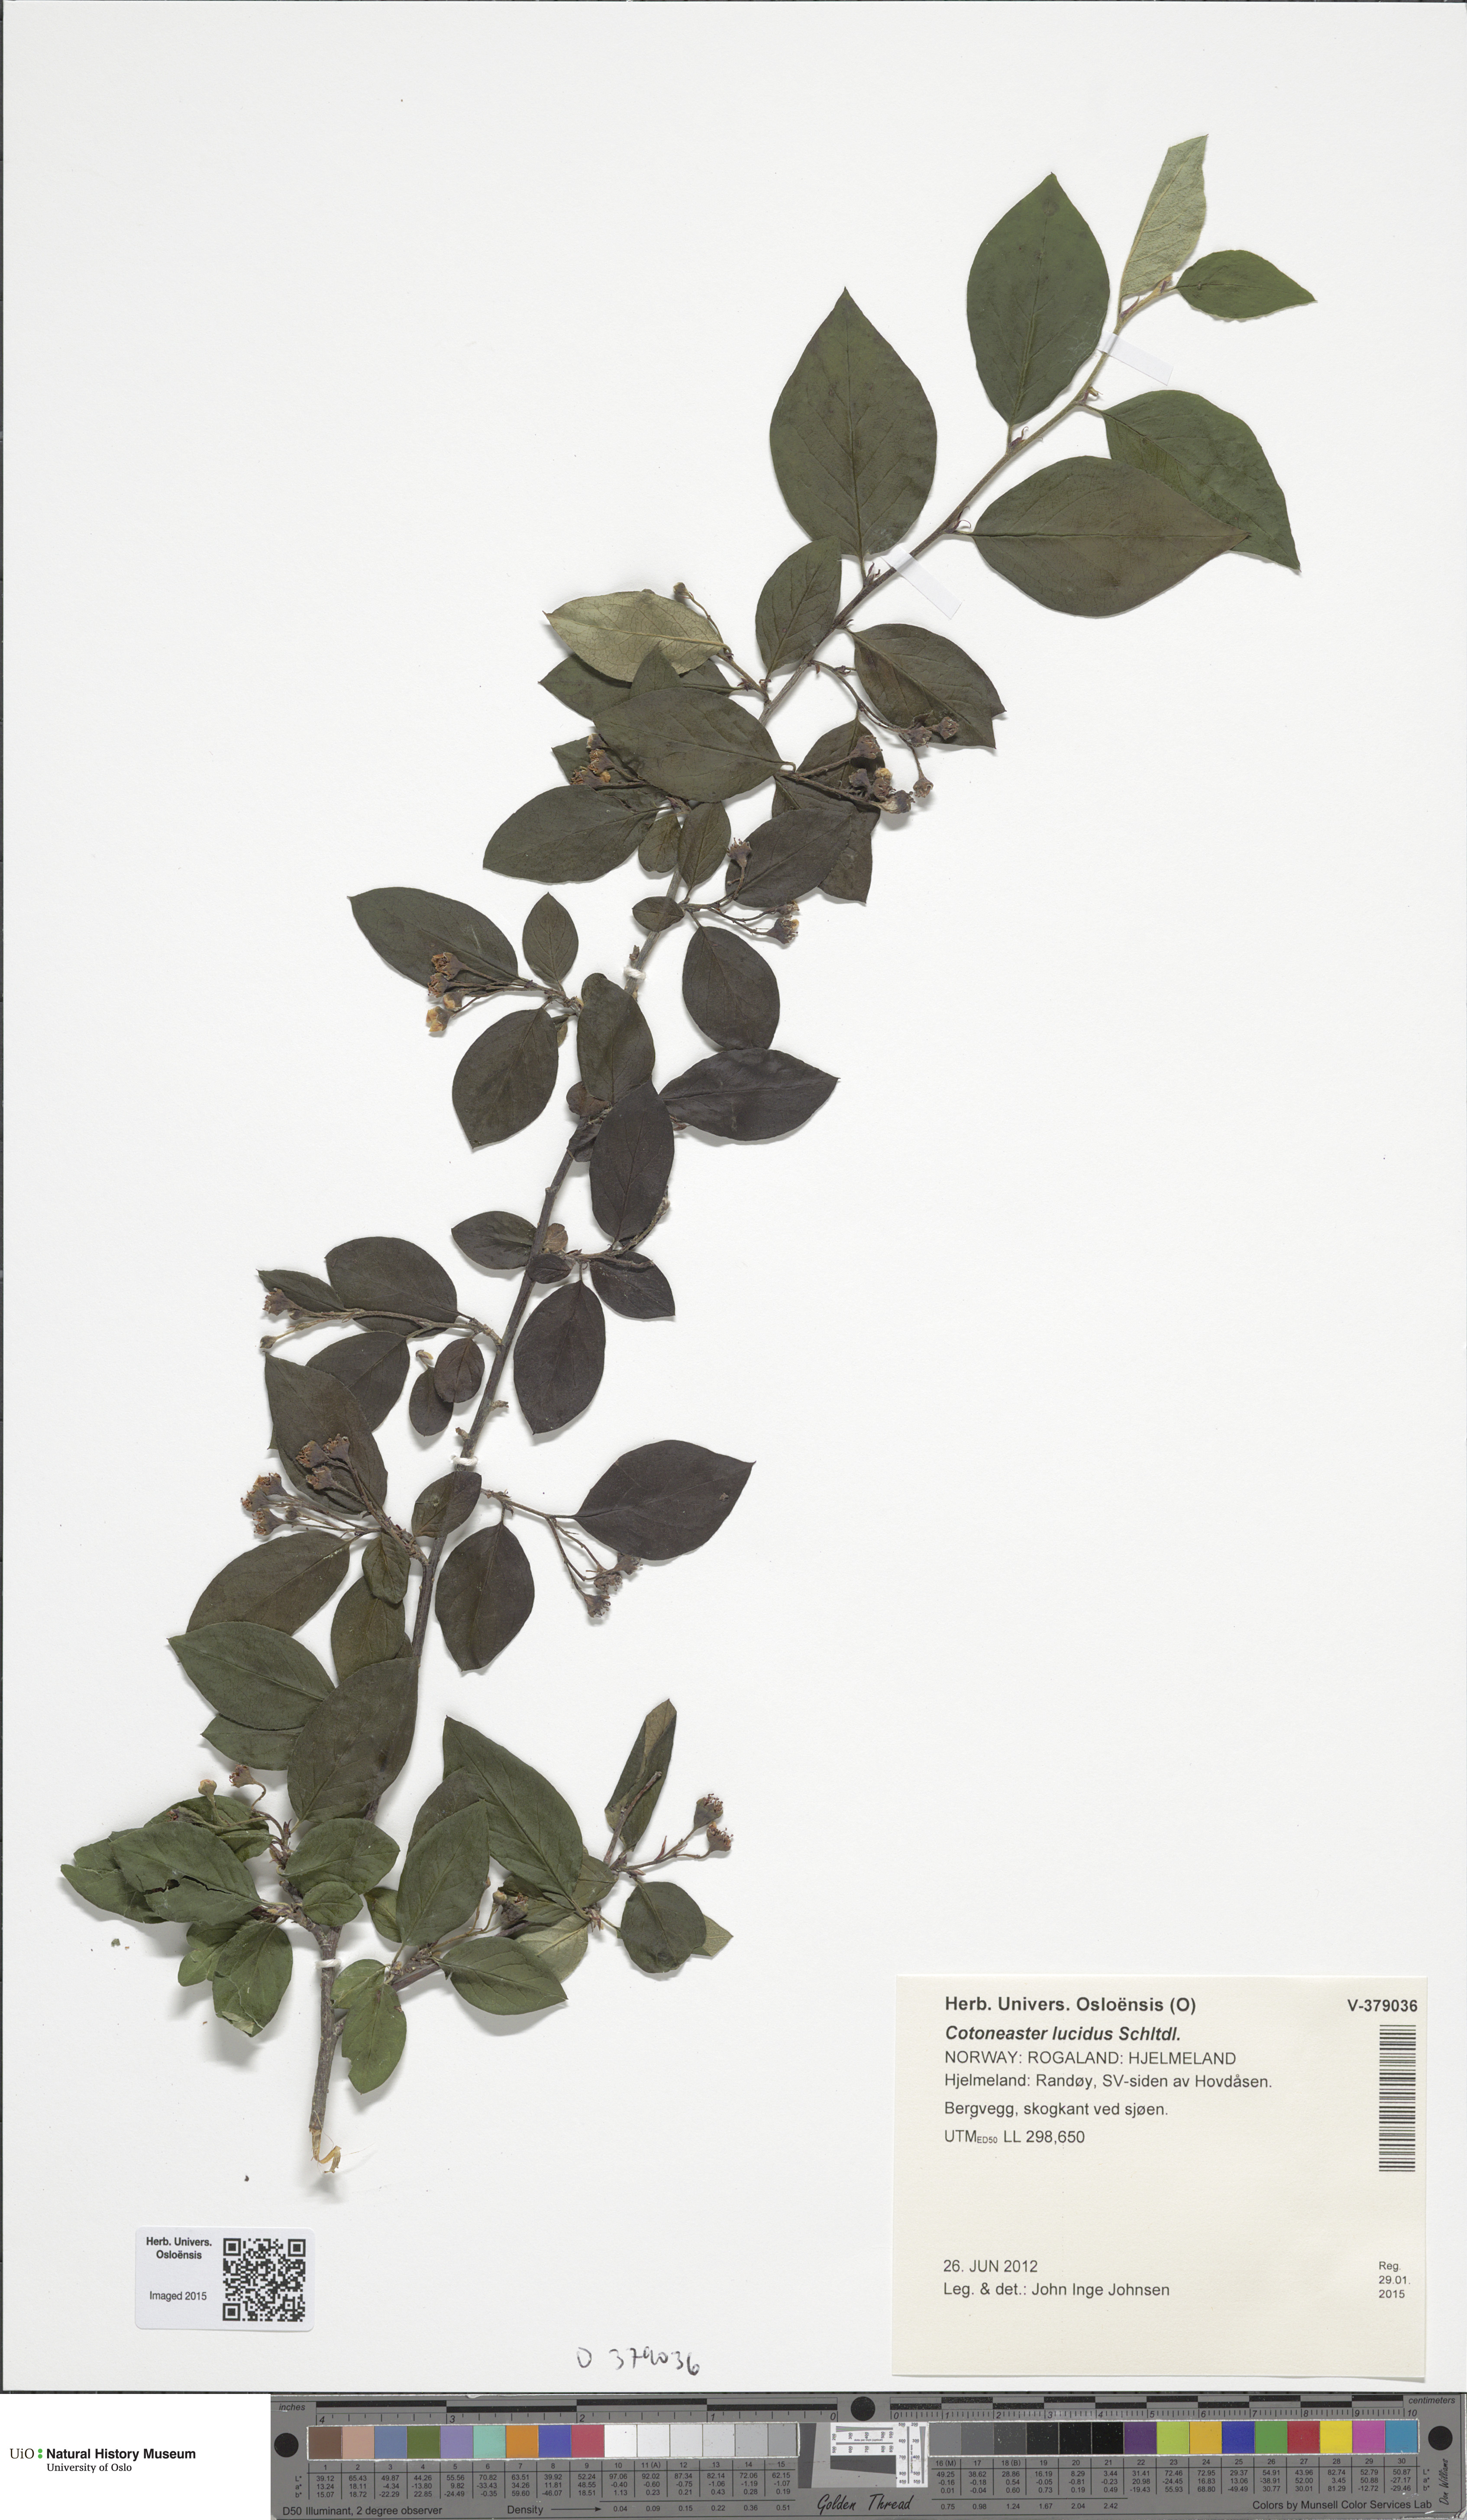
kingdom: Plantae
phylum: Tracheophyta
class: Magnoliopsida
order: Rosales
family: Rosaceae
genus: Cotoneaster
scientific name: Cotoneaster acutifolius
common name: Peking cotoneaster
